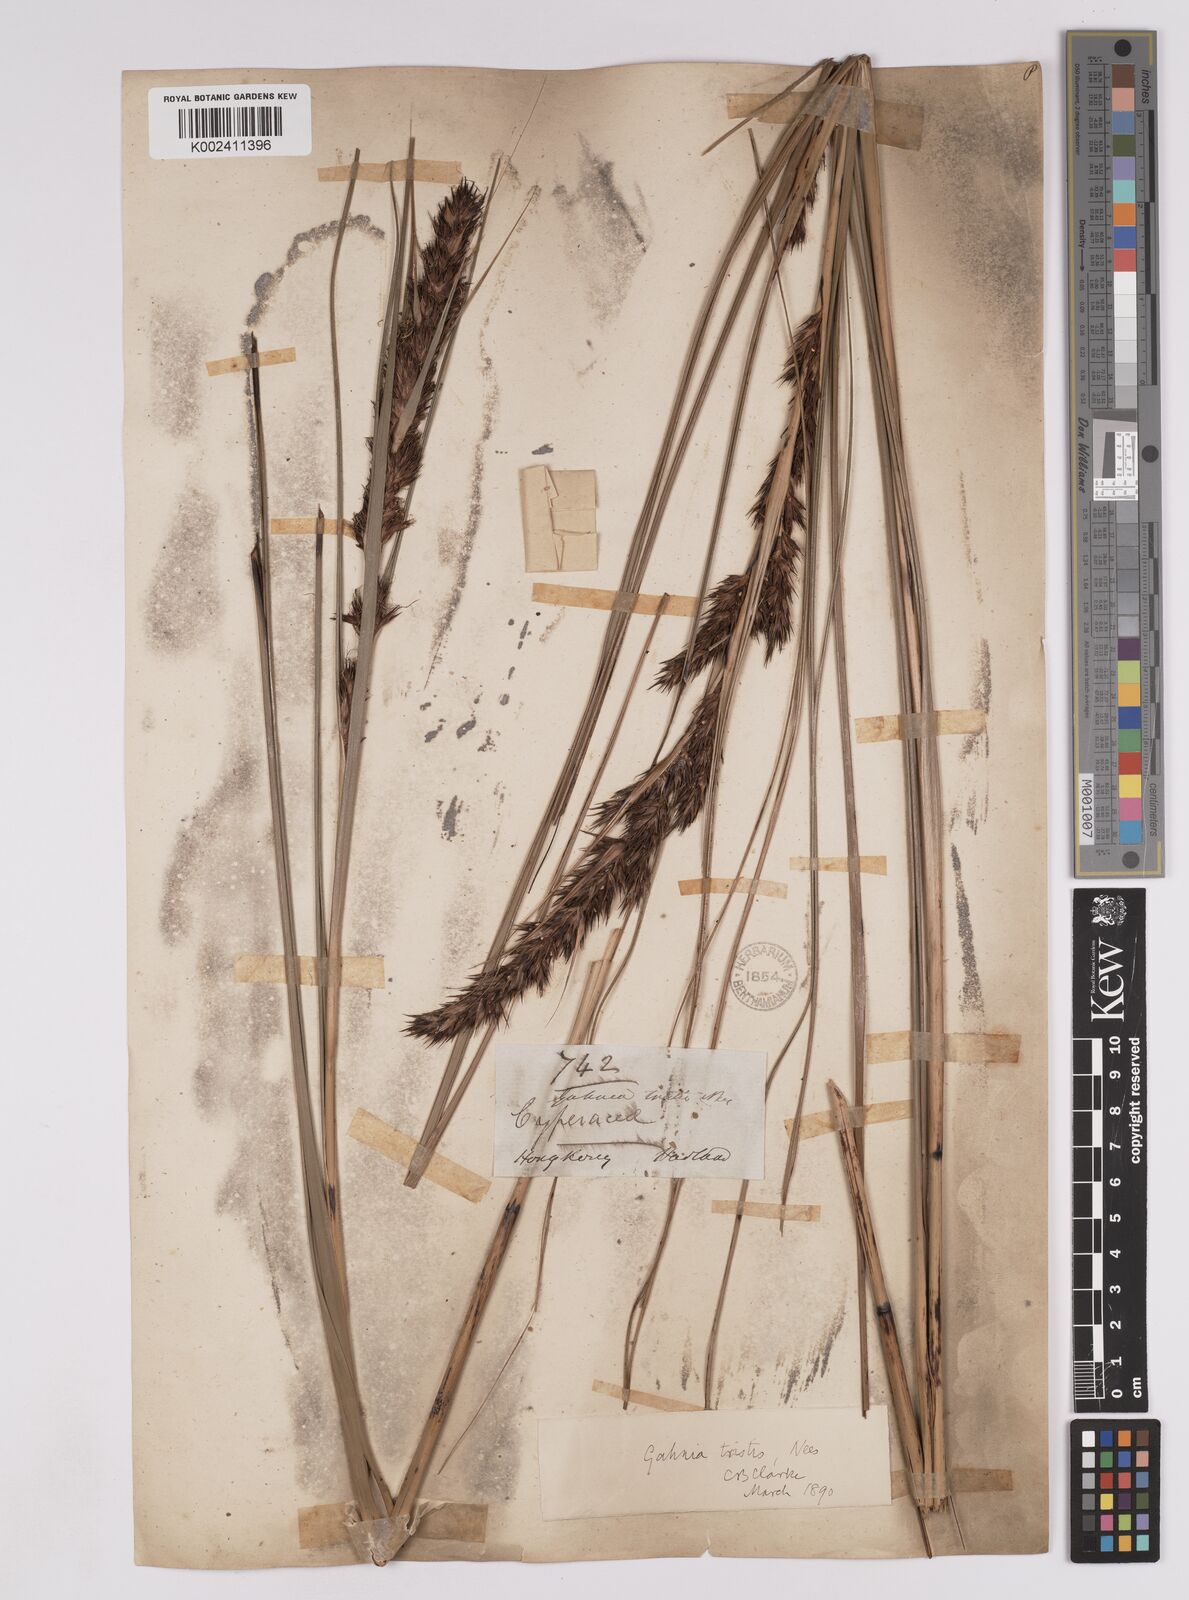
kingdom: Plantae
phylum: Tracheophyta
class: Liliopsida
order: Poales
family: Cyperaceae
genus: Gahnia
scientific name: Gahnia tristis
